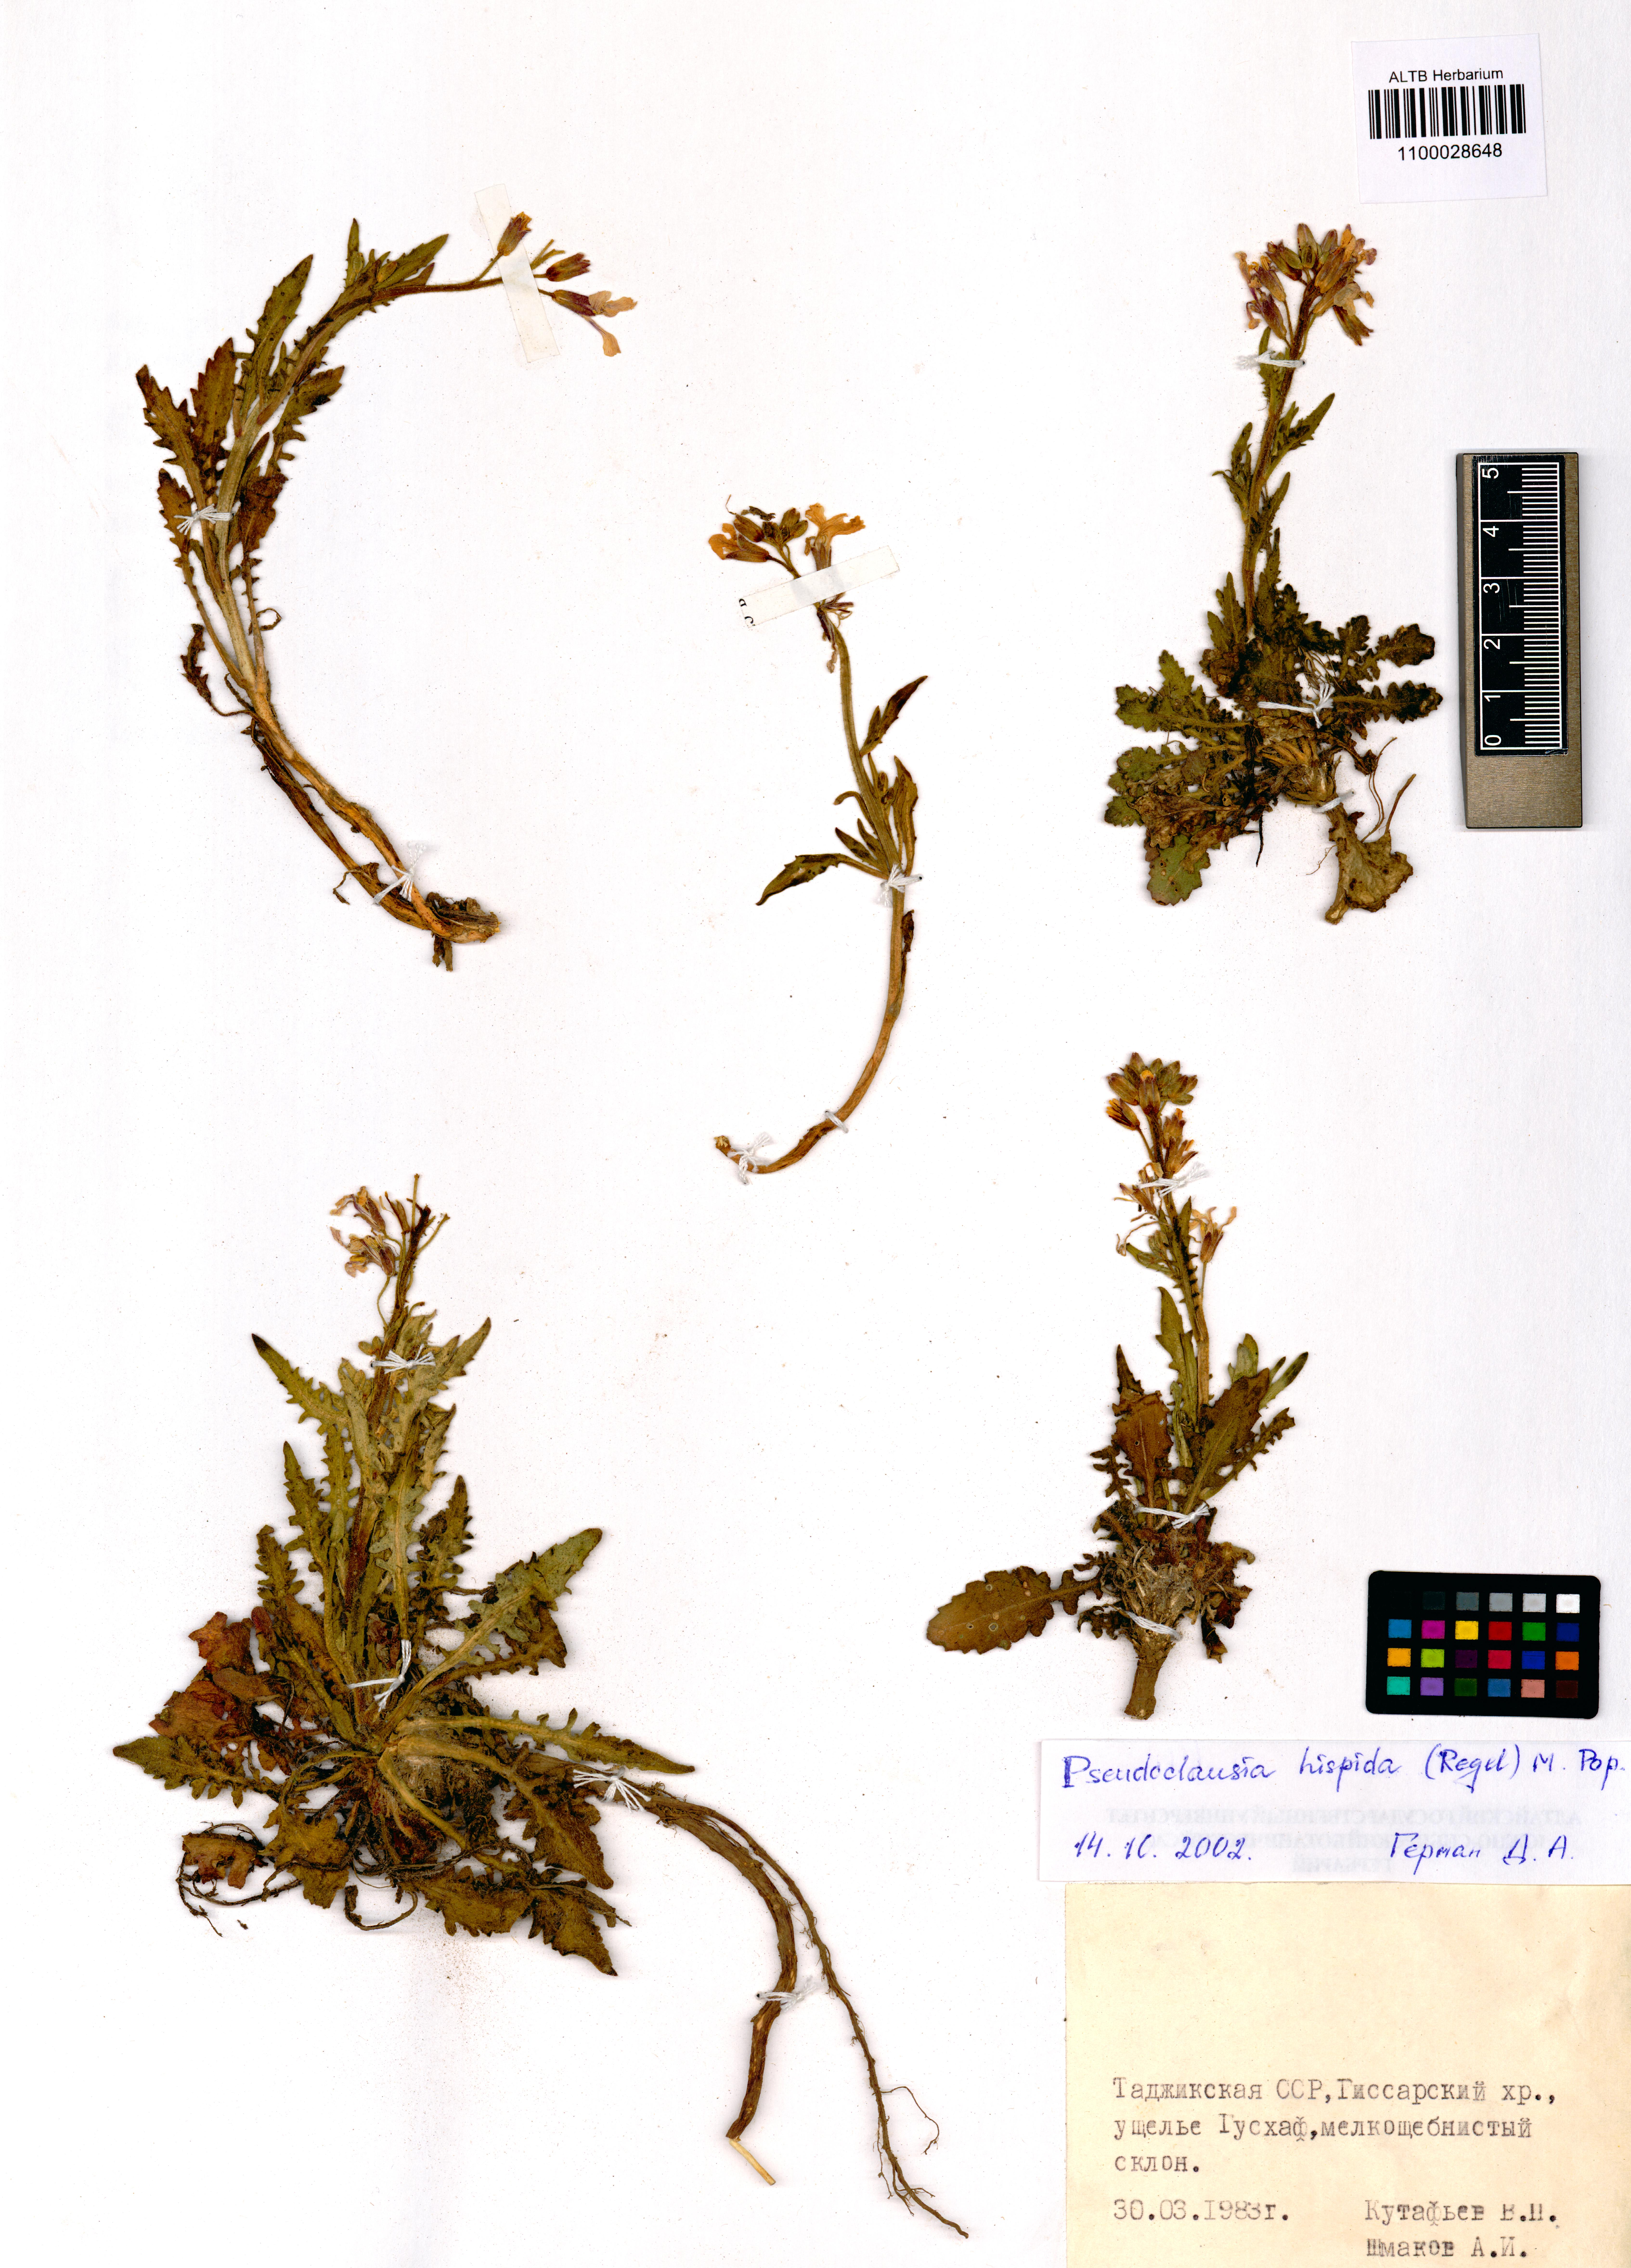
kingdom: Plantae
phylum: Tracheophyta
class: Magnoliopsida
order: Brassicales
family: Brassicaceae
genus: Parrya
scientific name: Parrya hispida
